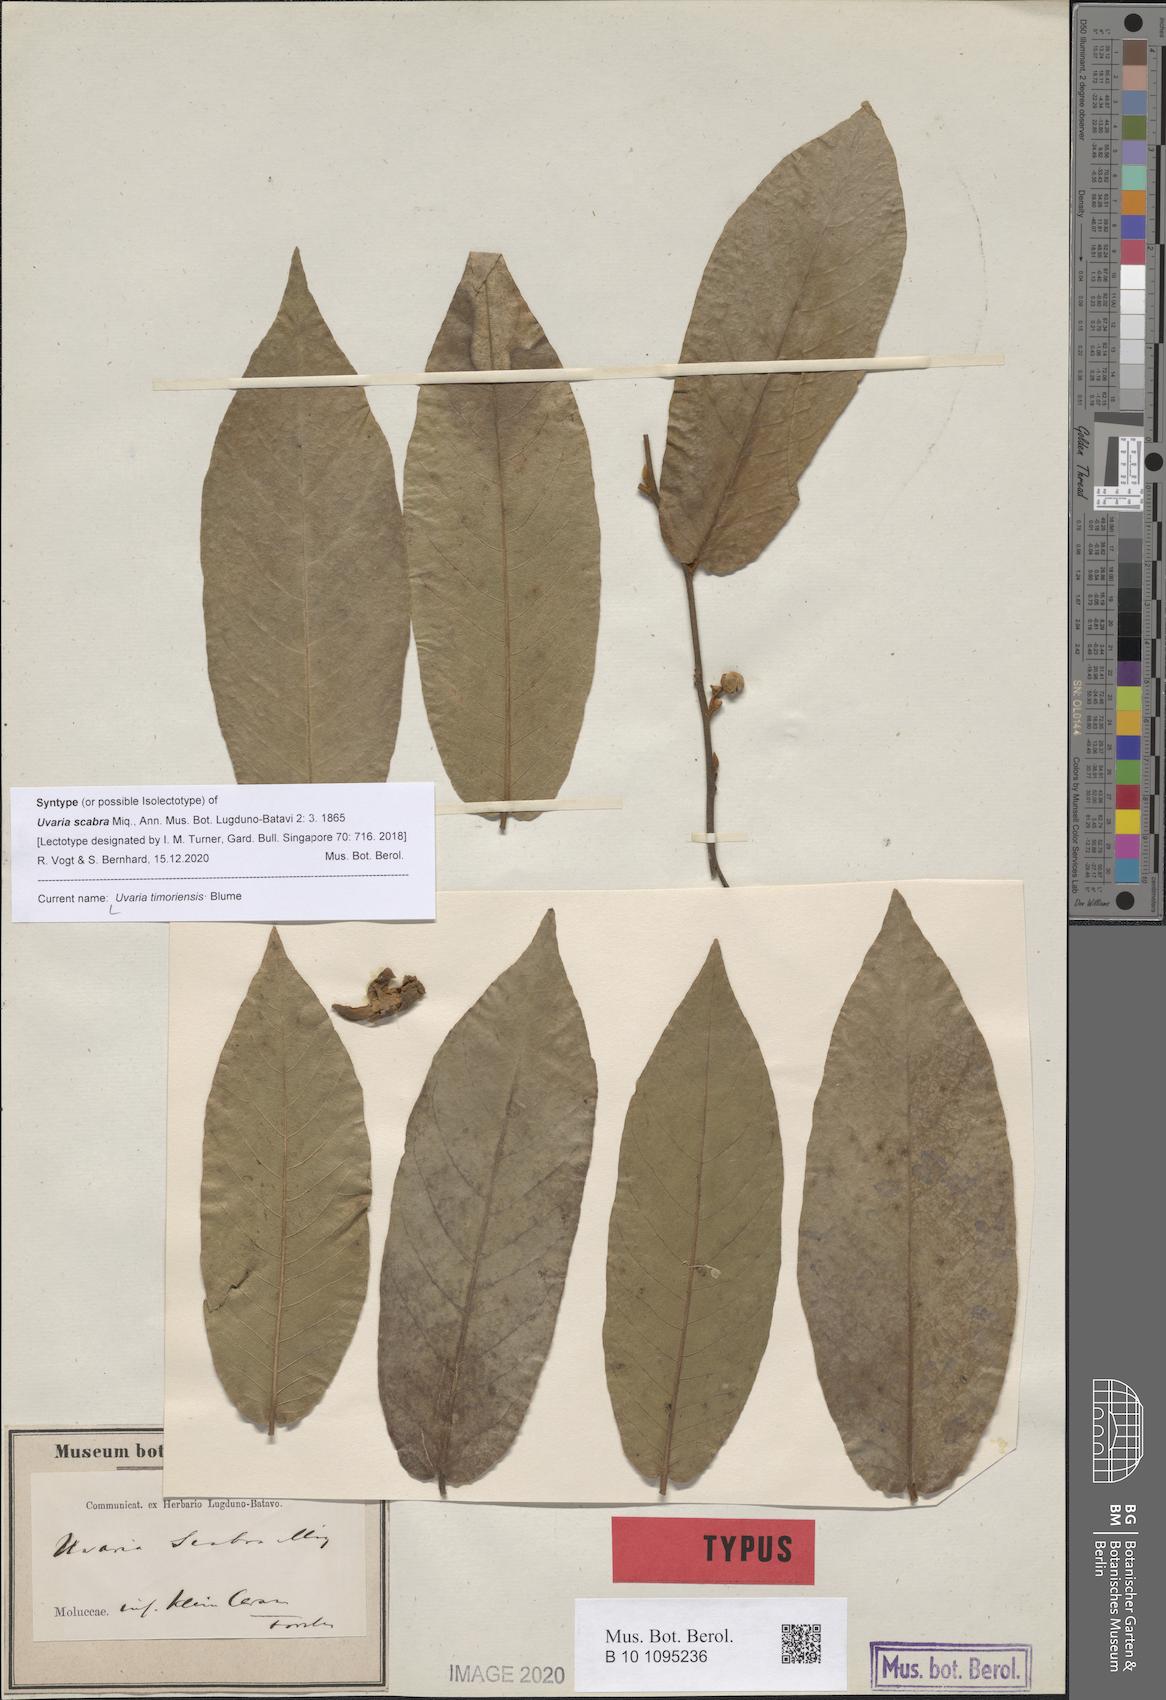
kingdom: Plantae
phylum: Tracheophyta
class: Magnoliopsida
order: Magnoliales
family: Annonaceae
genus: Uvaria
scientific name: Uvaria timoriensis
